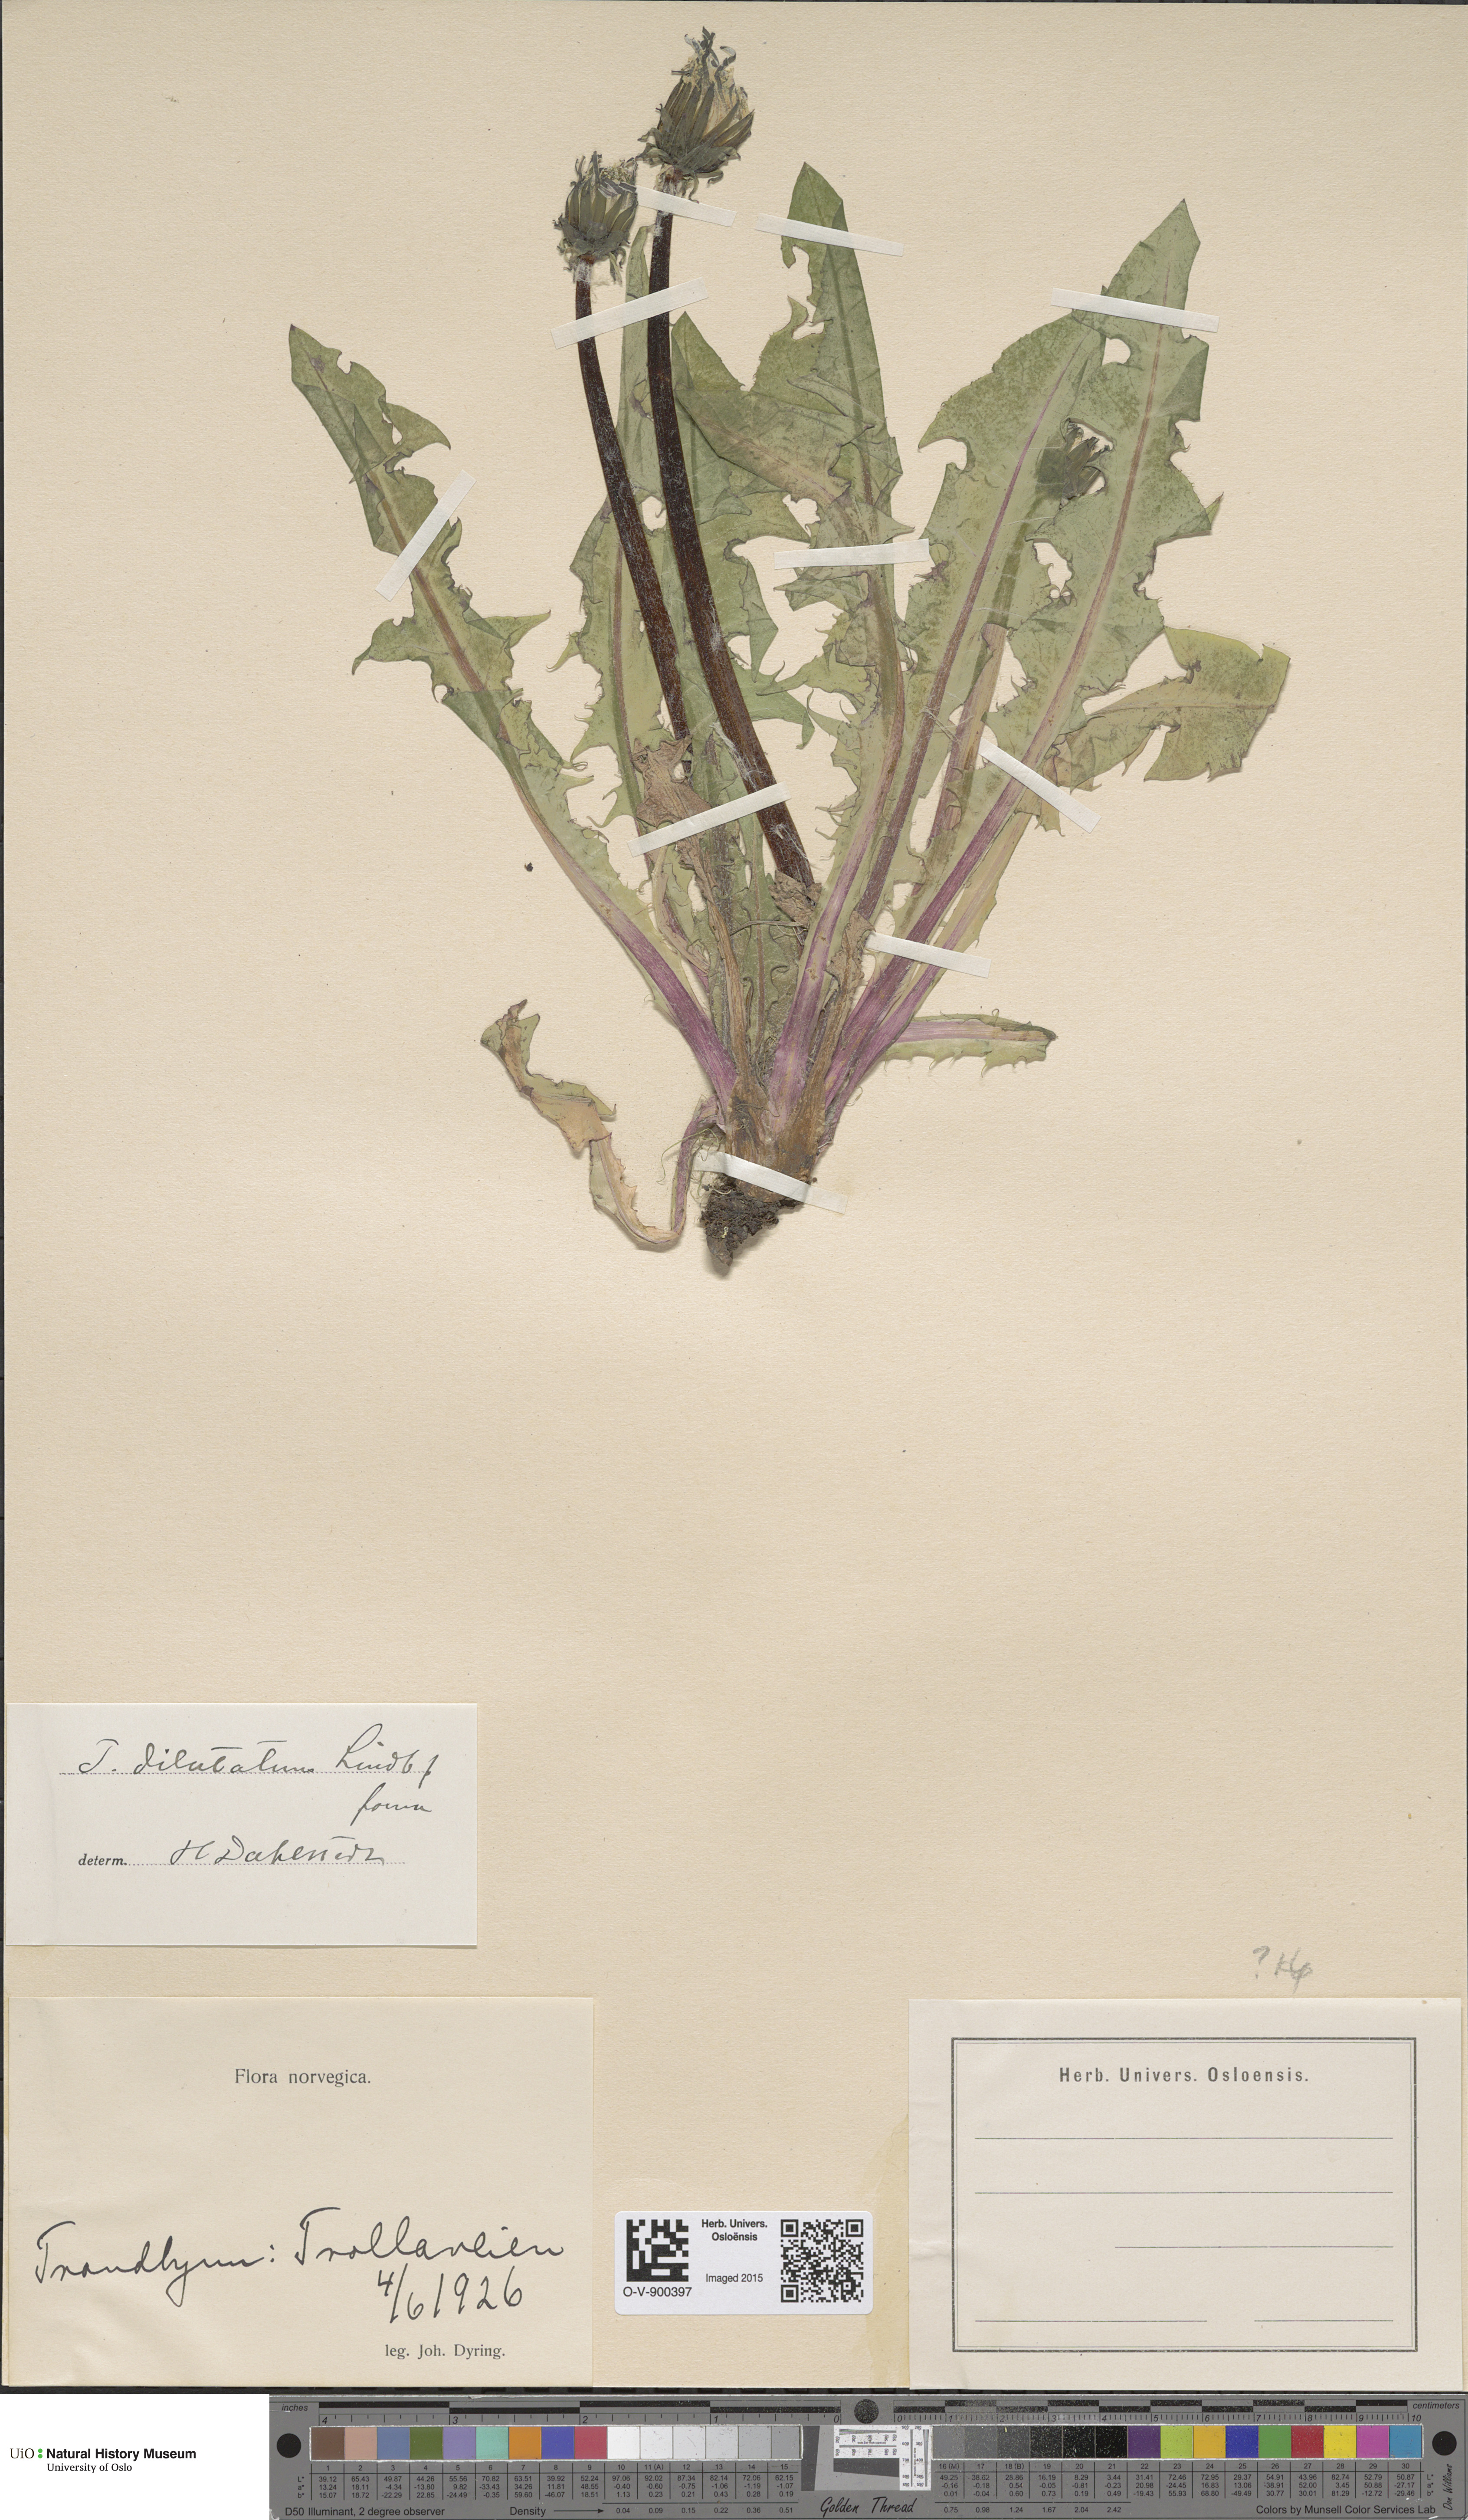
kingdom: Plantae
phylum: Tracheophyta
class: Magnoliopsida
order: Asterales
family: Asteraceae
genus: Taraxacum
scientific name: Taraxacum dilatatum
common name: Grassland dandelion
